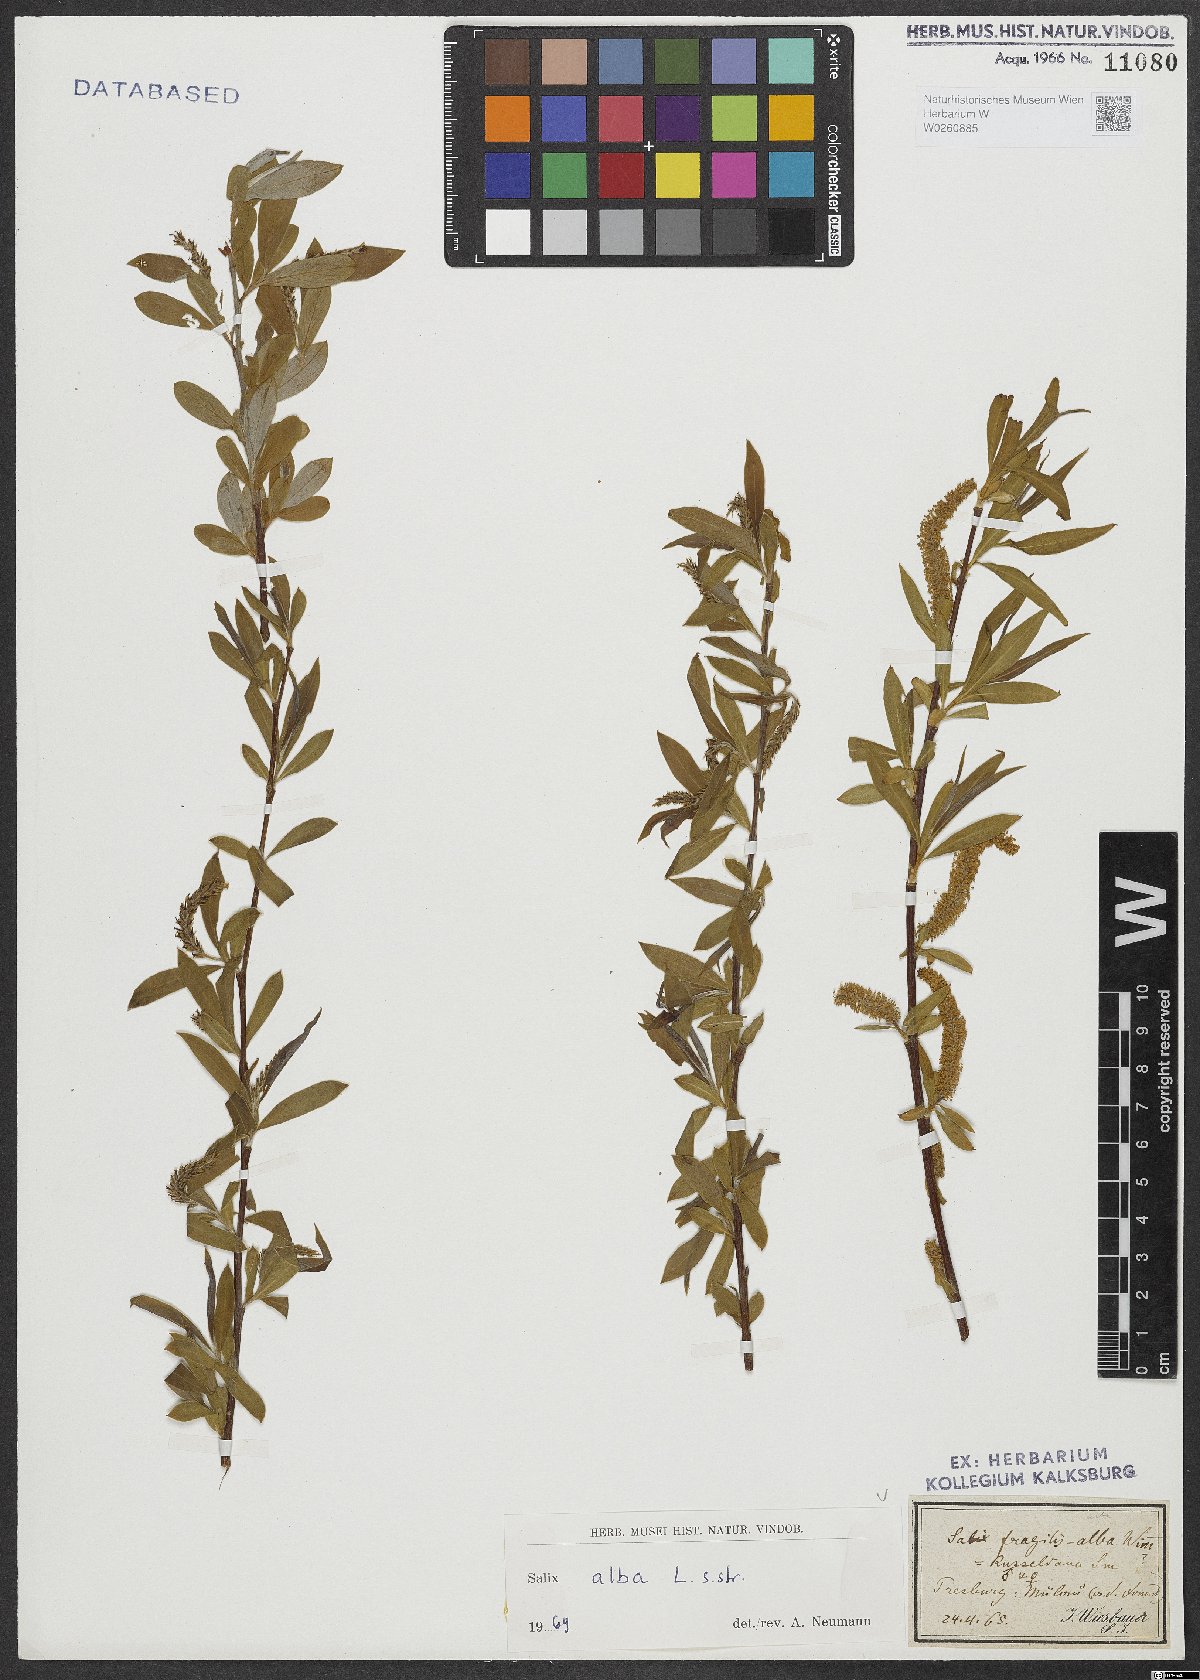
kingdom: Plantae
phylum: Tracheophyta
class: Magnoliopsida
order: Malpighiales
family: Salicaceae
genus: Salix
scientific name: Salix alba
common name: White willow
